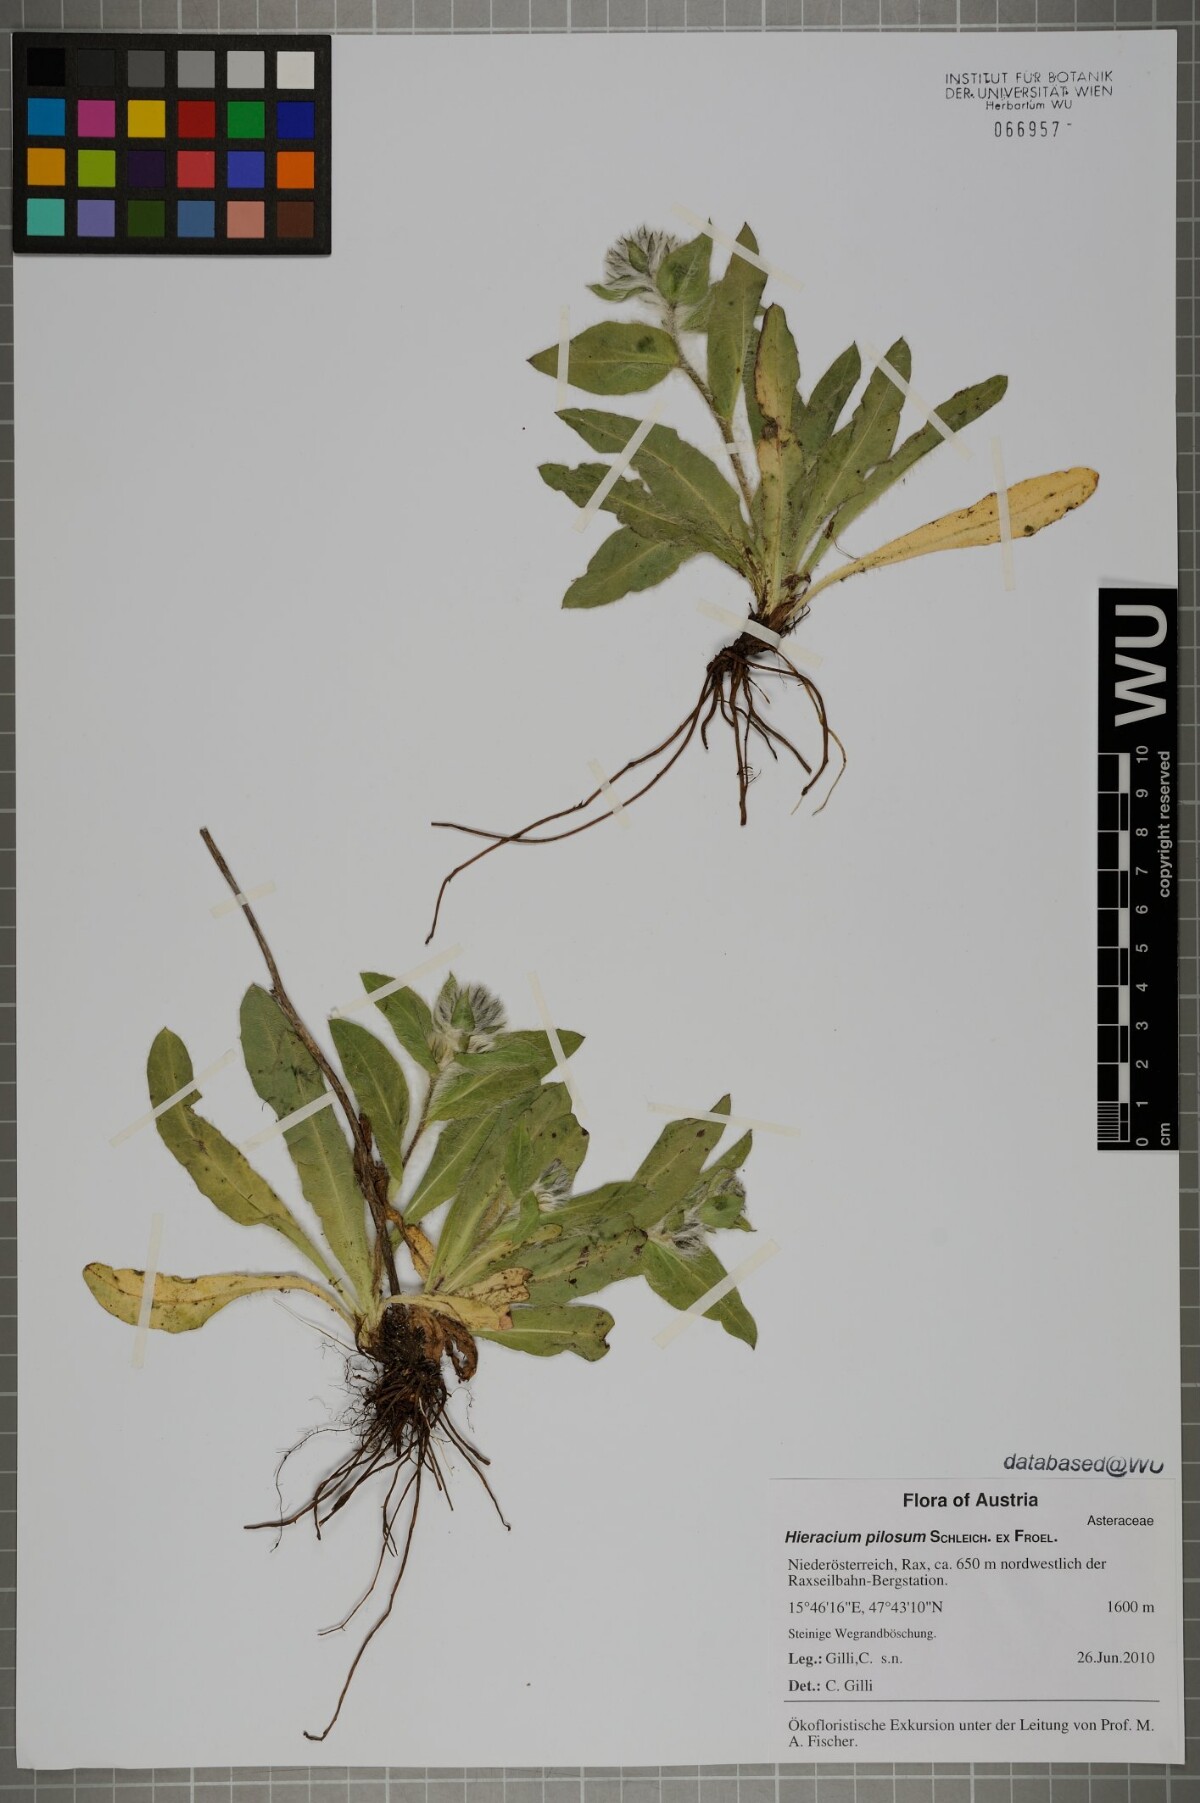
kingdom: Plantae
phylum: Tracheophyta
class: Magnoliopsida
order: Asterales
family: Asteraceae
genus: Hieracium
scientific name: Hieracium pilosum
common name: Fimbriate-pitted hawkweed
